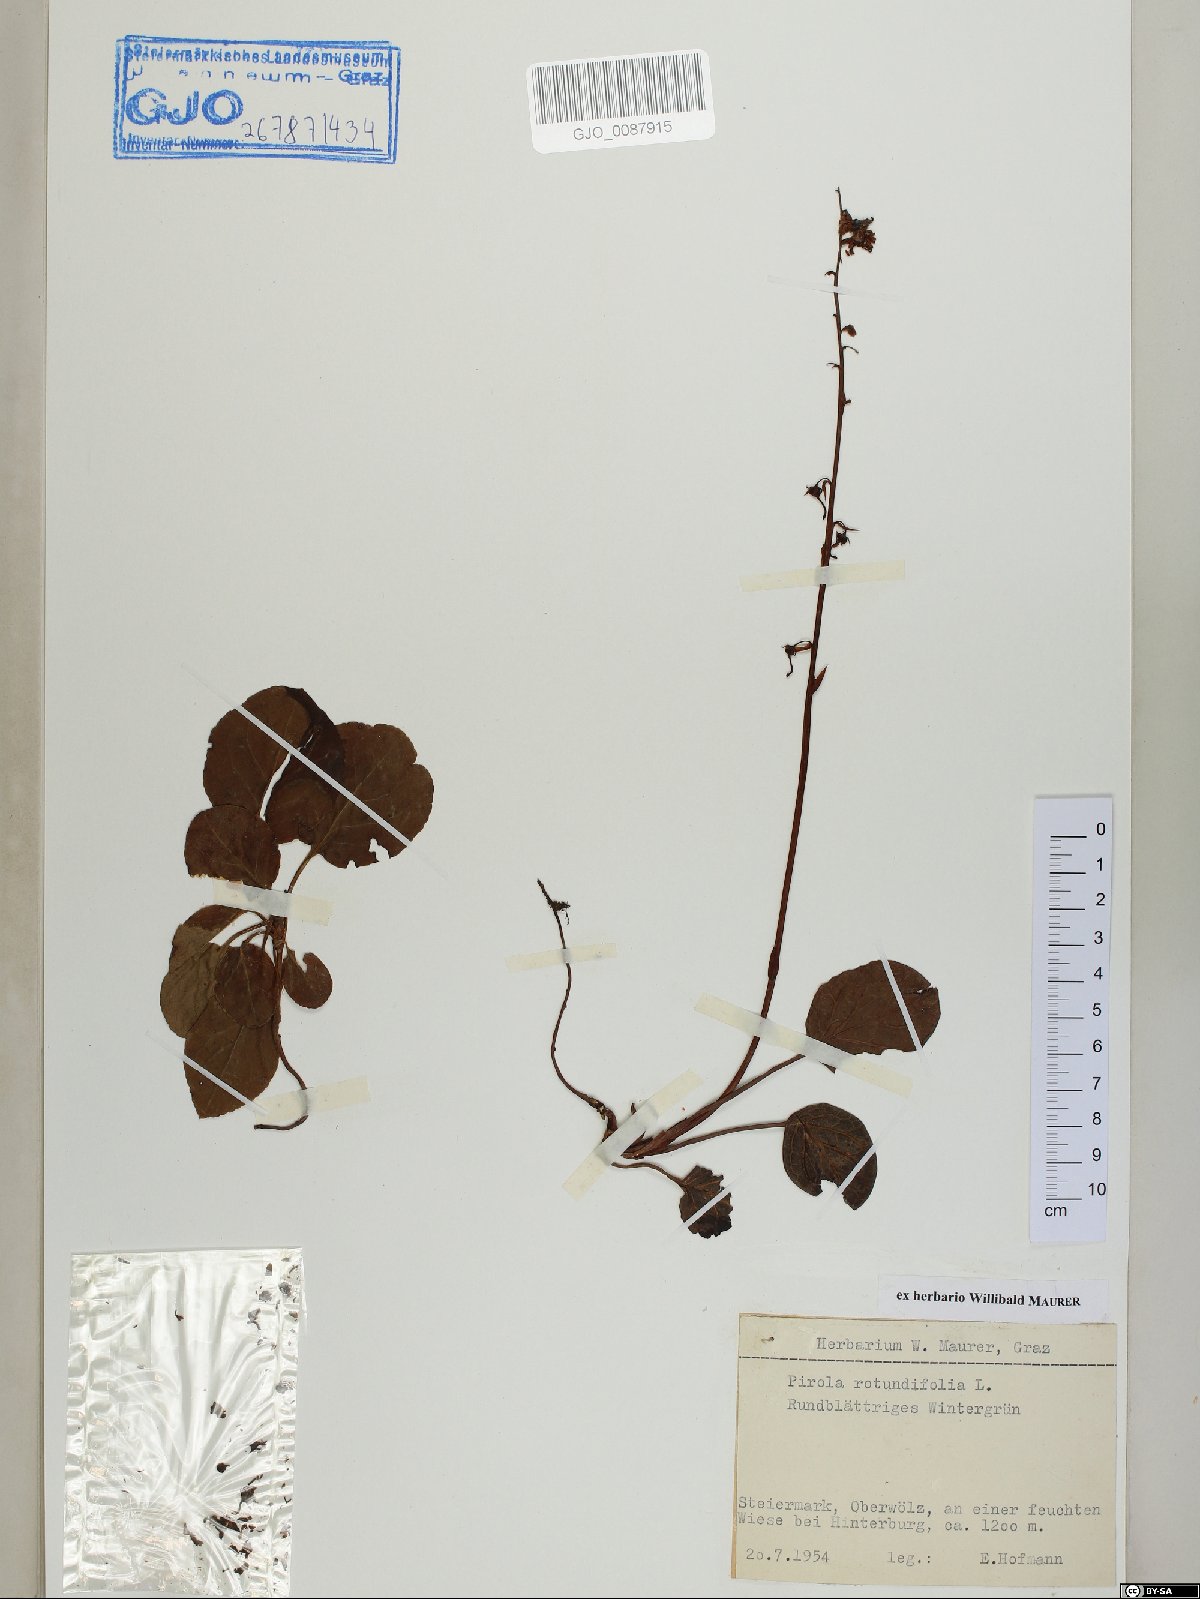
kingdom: Plantae
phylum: Tracheophyta
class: Magnoliopsida
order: Ericales
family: Ericaceae
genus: Pyrola
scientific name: Pyrola rotundifolia
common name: Round-leaved wintergreen
